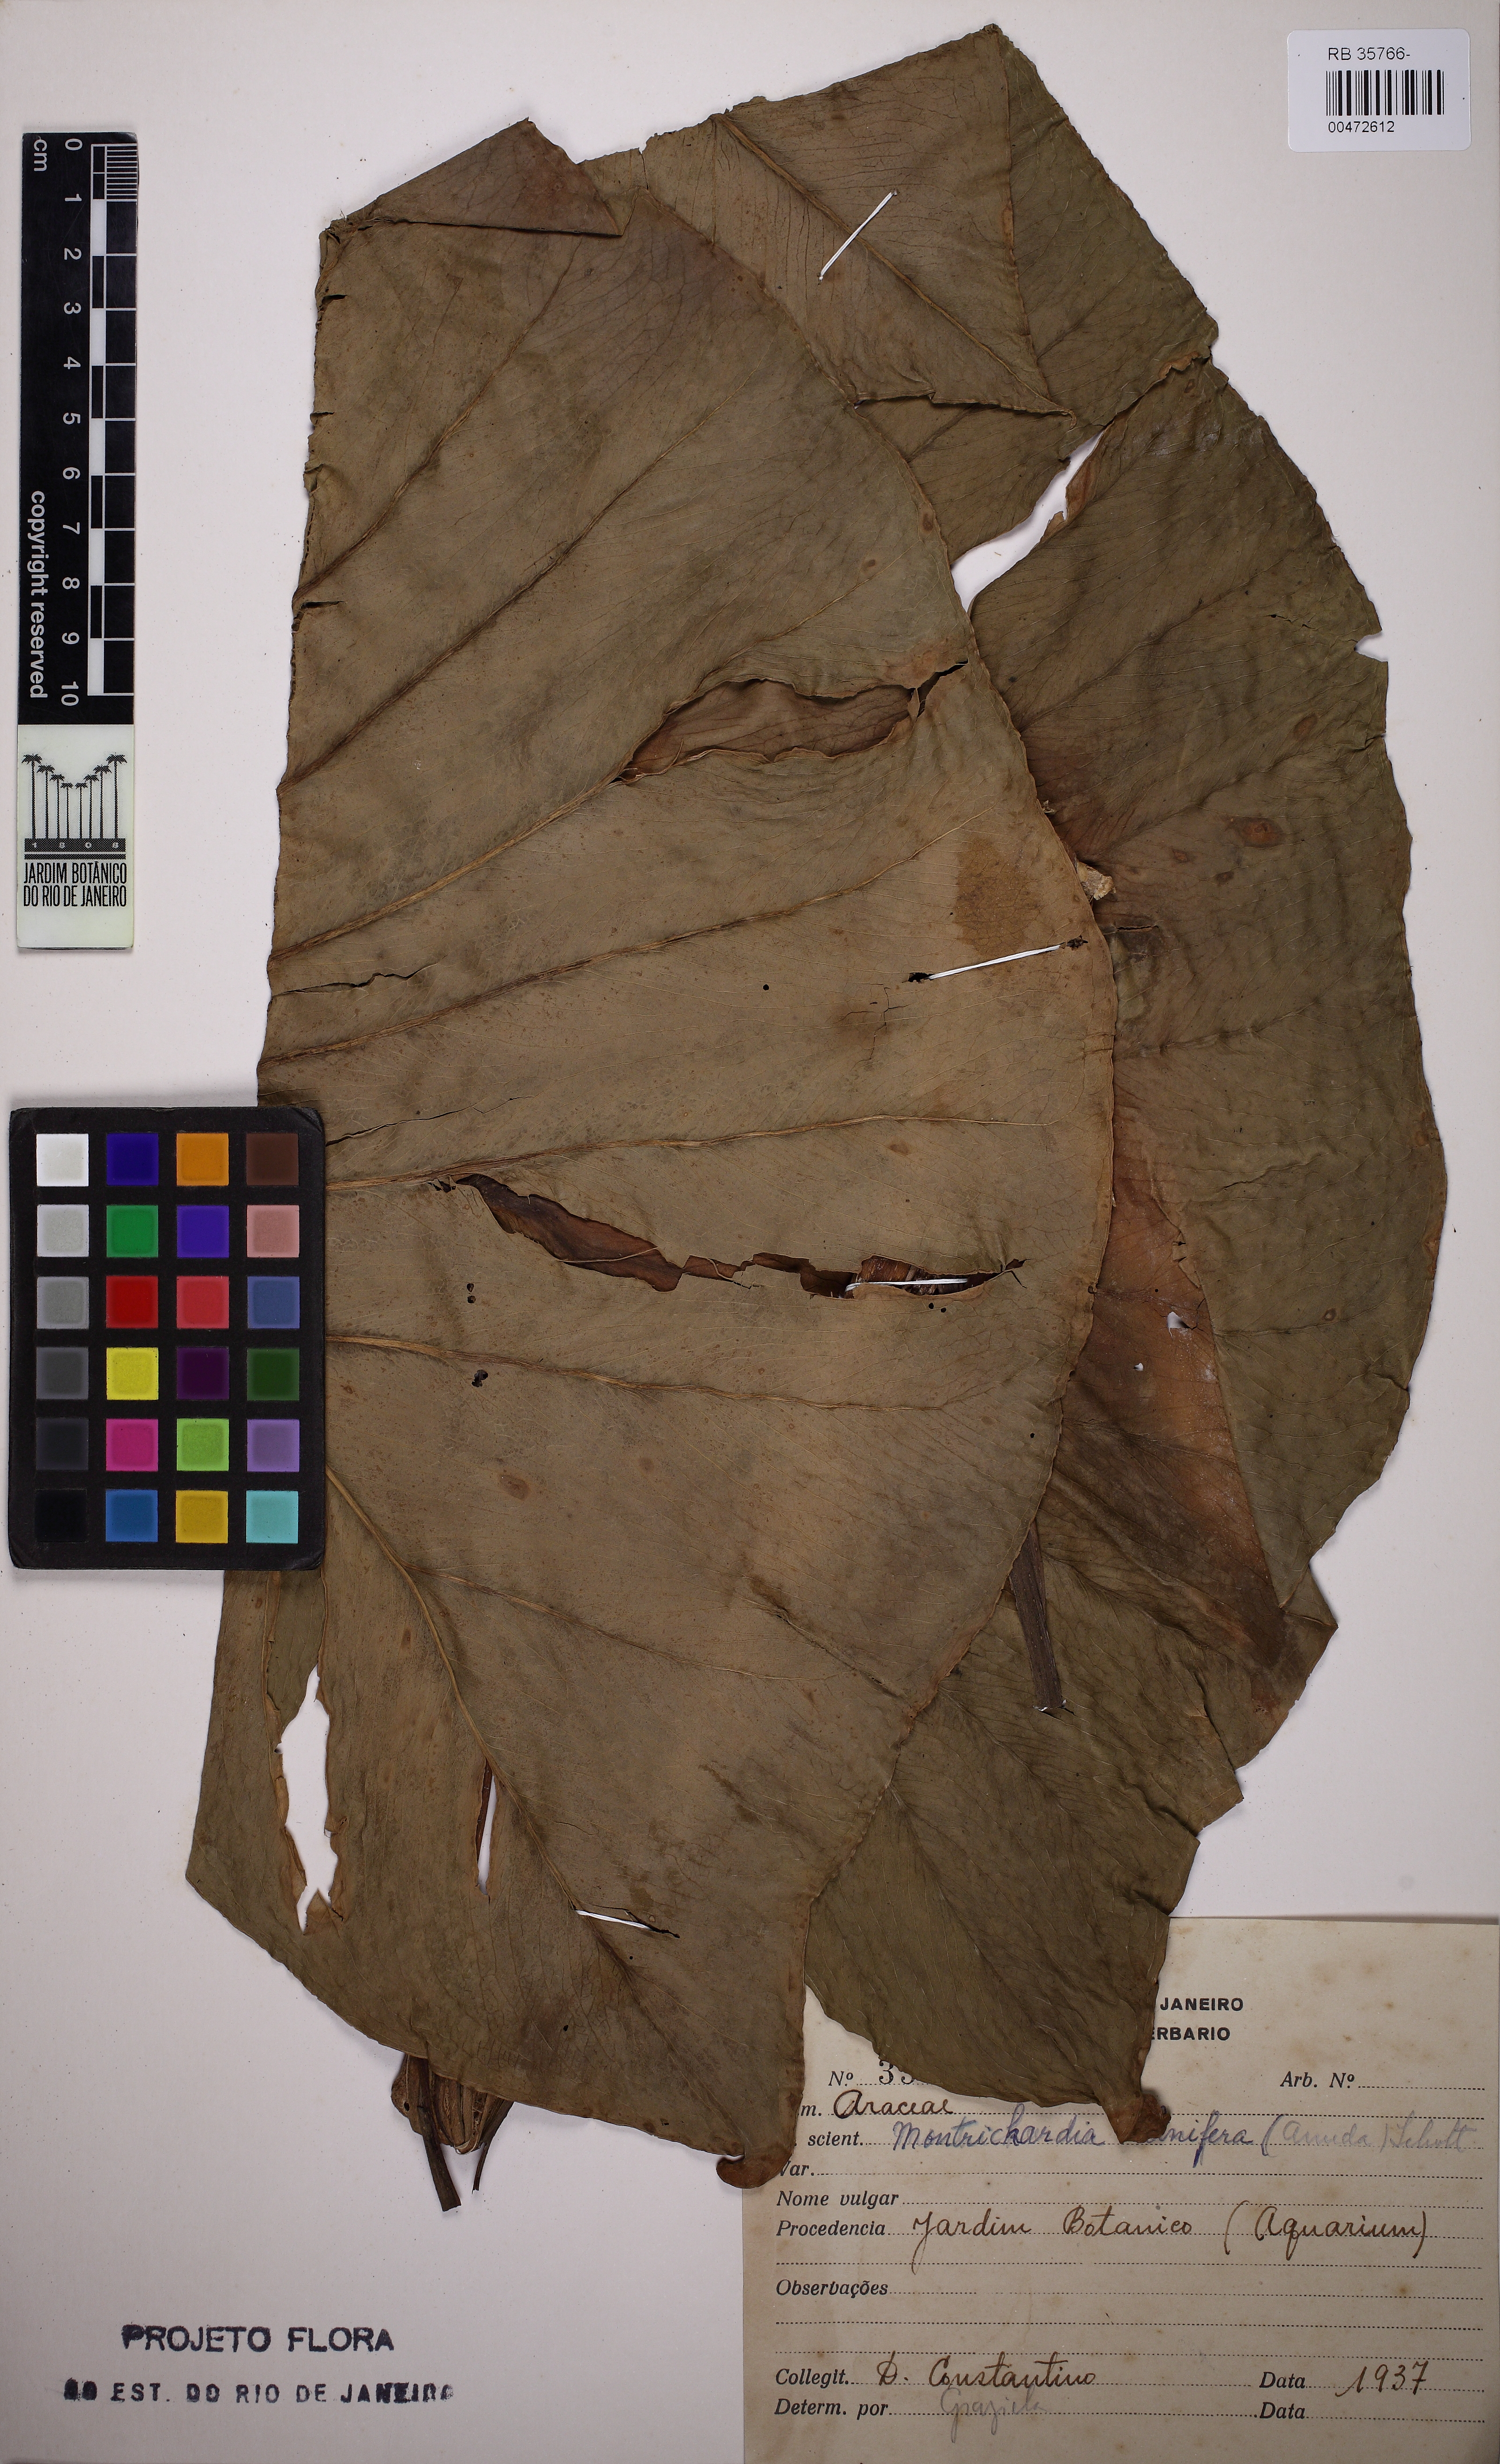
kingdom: Plantae
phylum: Tracheophyta
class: Liliopsida
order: Alismatales
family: Araceae
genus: Montrichardia
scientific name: Montrichardia linifera
